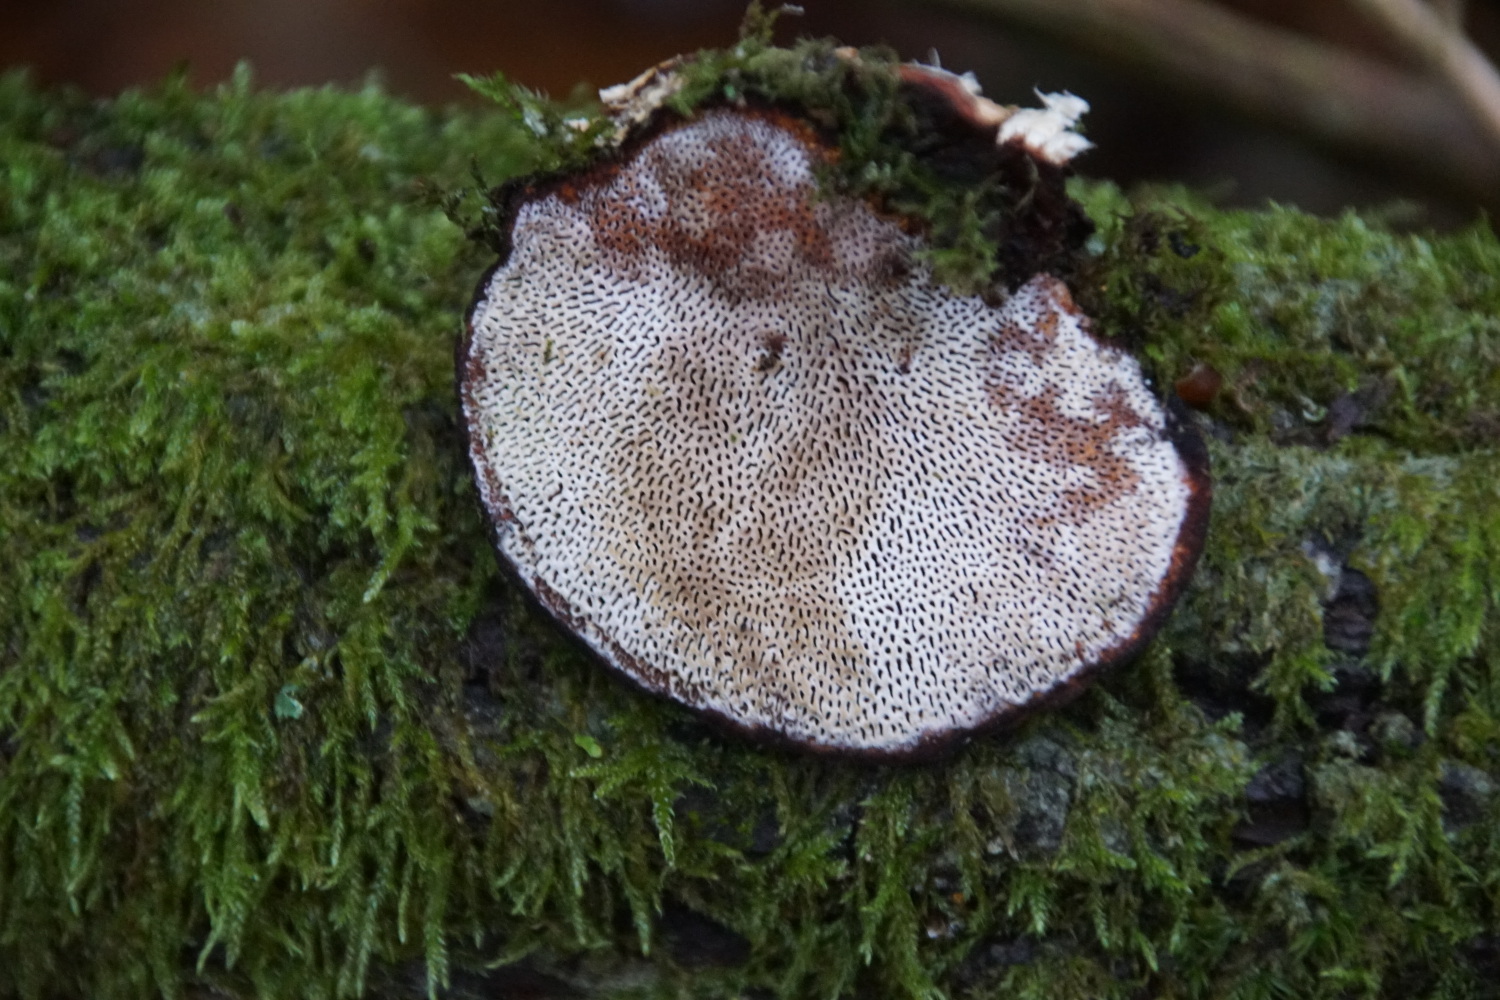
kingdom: Fungi
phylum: Basidiomycota
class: Agaricomycetes
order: Polyporales
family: Polyporaceae
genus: Daedaleopsis
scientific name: Daedaleopsis confragosa
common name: rødmende læderporesvamp
